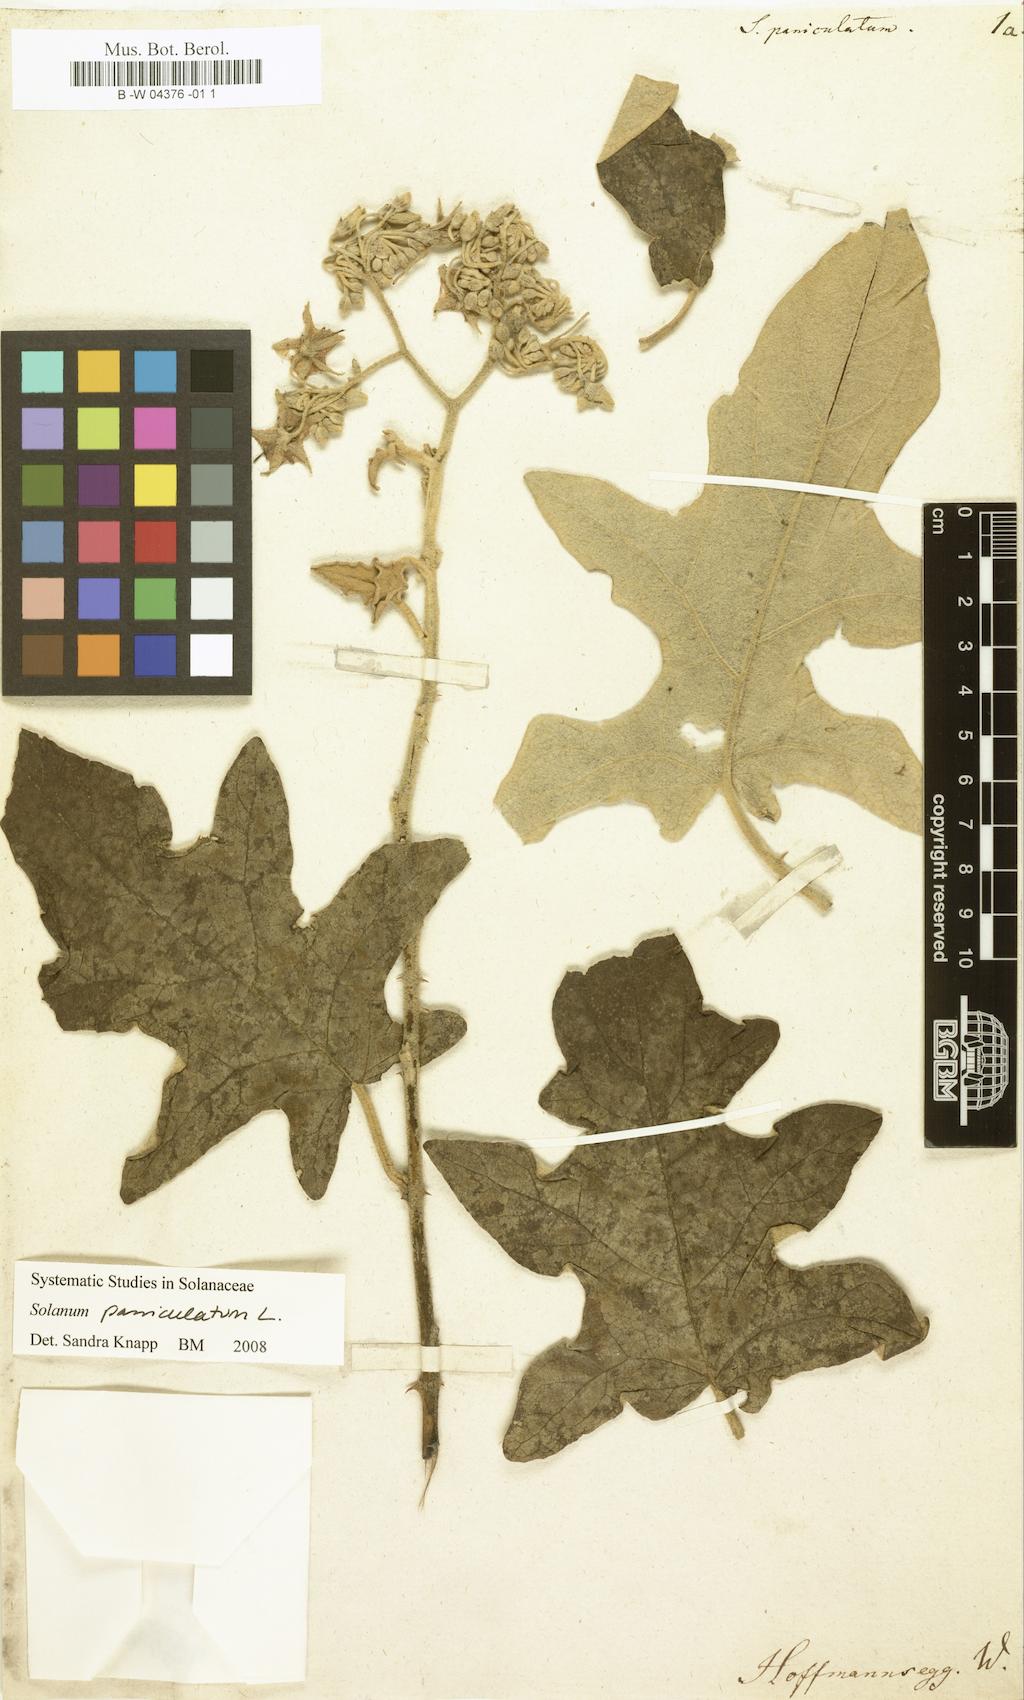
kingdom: Plantae
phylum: Tracheophyta
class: Magnoliopsida
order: Solanales
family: Solanaceae
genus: Solanum
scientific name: Solanum paniculatum
